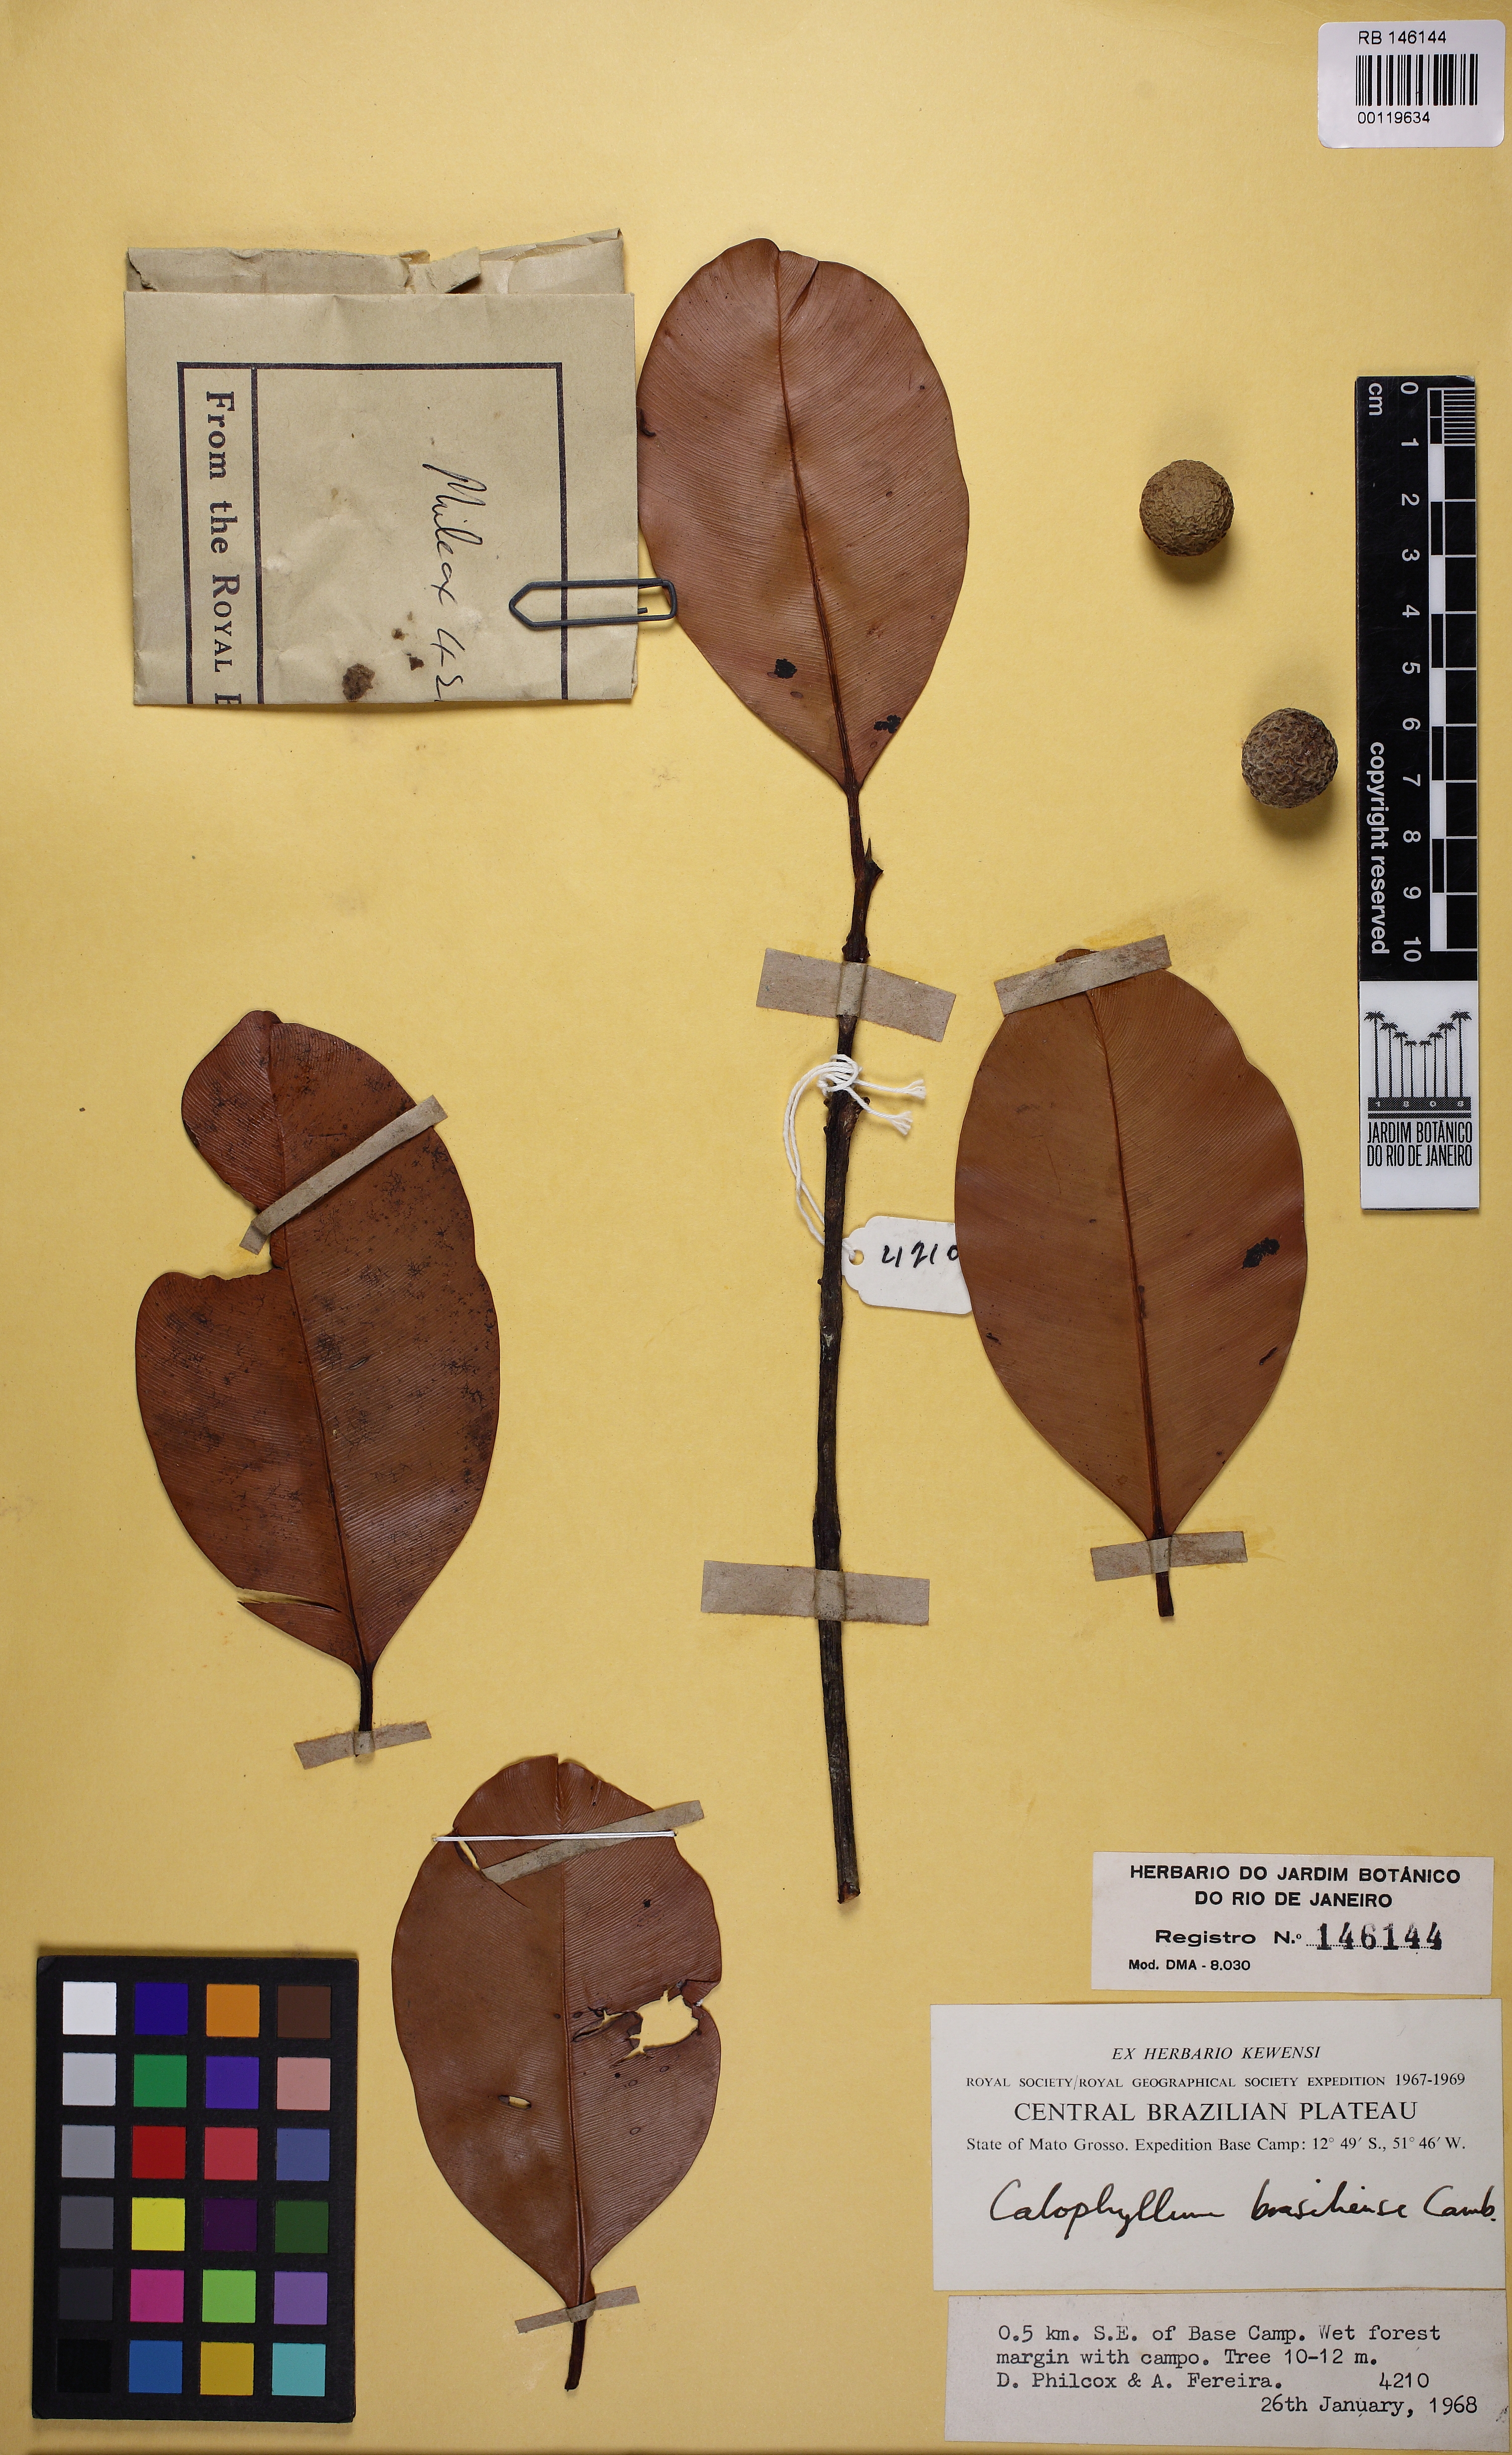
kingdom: Plantae
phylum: Tracheophyta
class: Magnoliopsida
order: Malpighiales
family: Calophyllaceae
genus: Calophyllum
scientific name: Calophyllum brasiliense
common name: Santa maria
